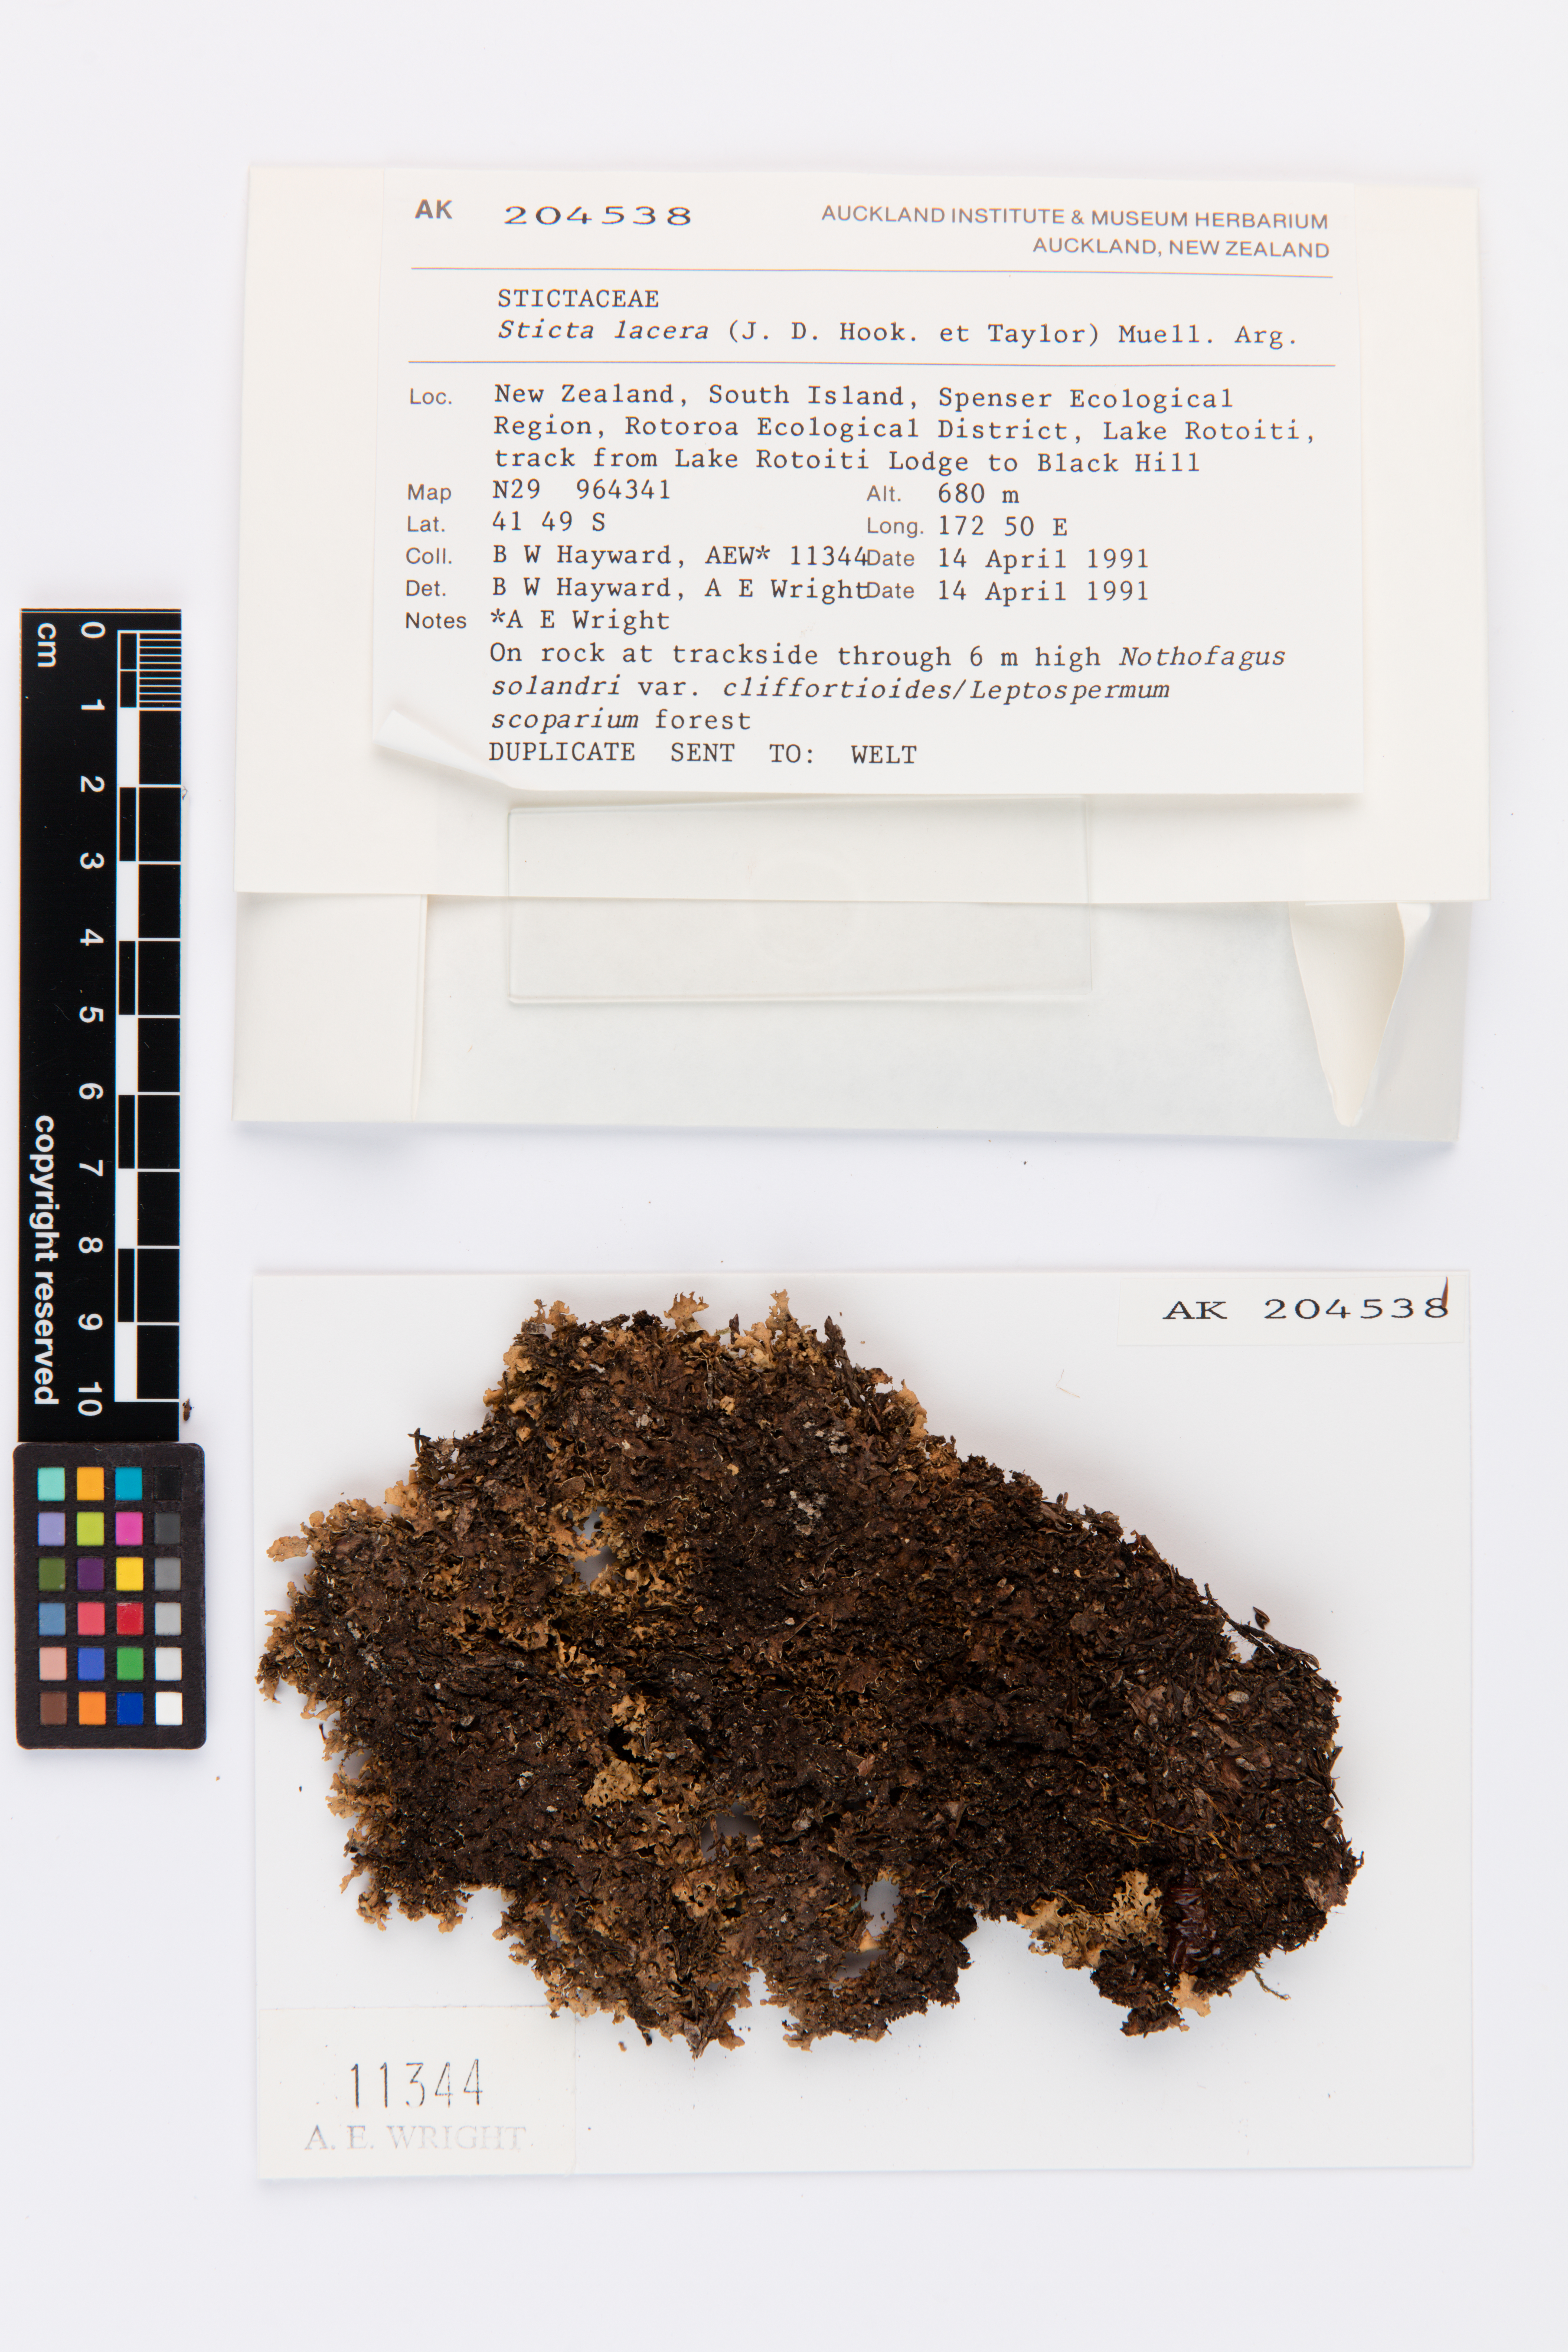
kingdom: Fungi
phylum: Ascomycota
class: Lecanoromycetes
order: Peltigerales
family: Lobariaceae
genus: Sticta
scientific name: Sticta
